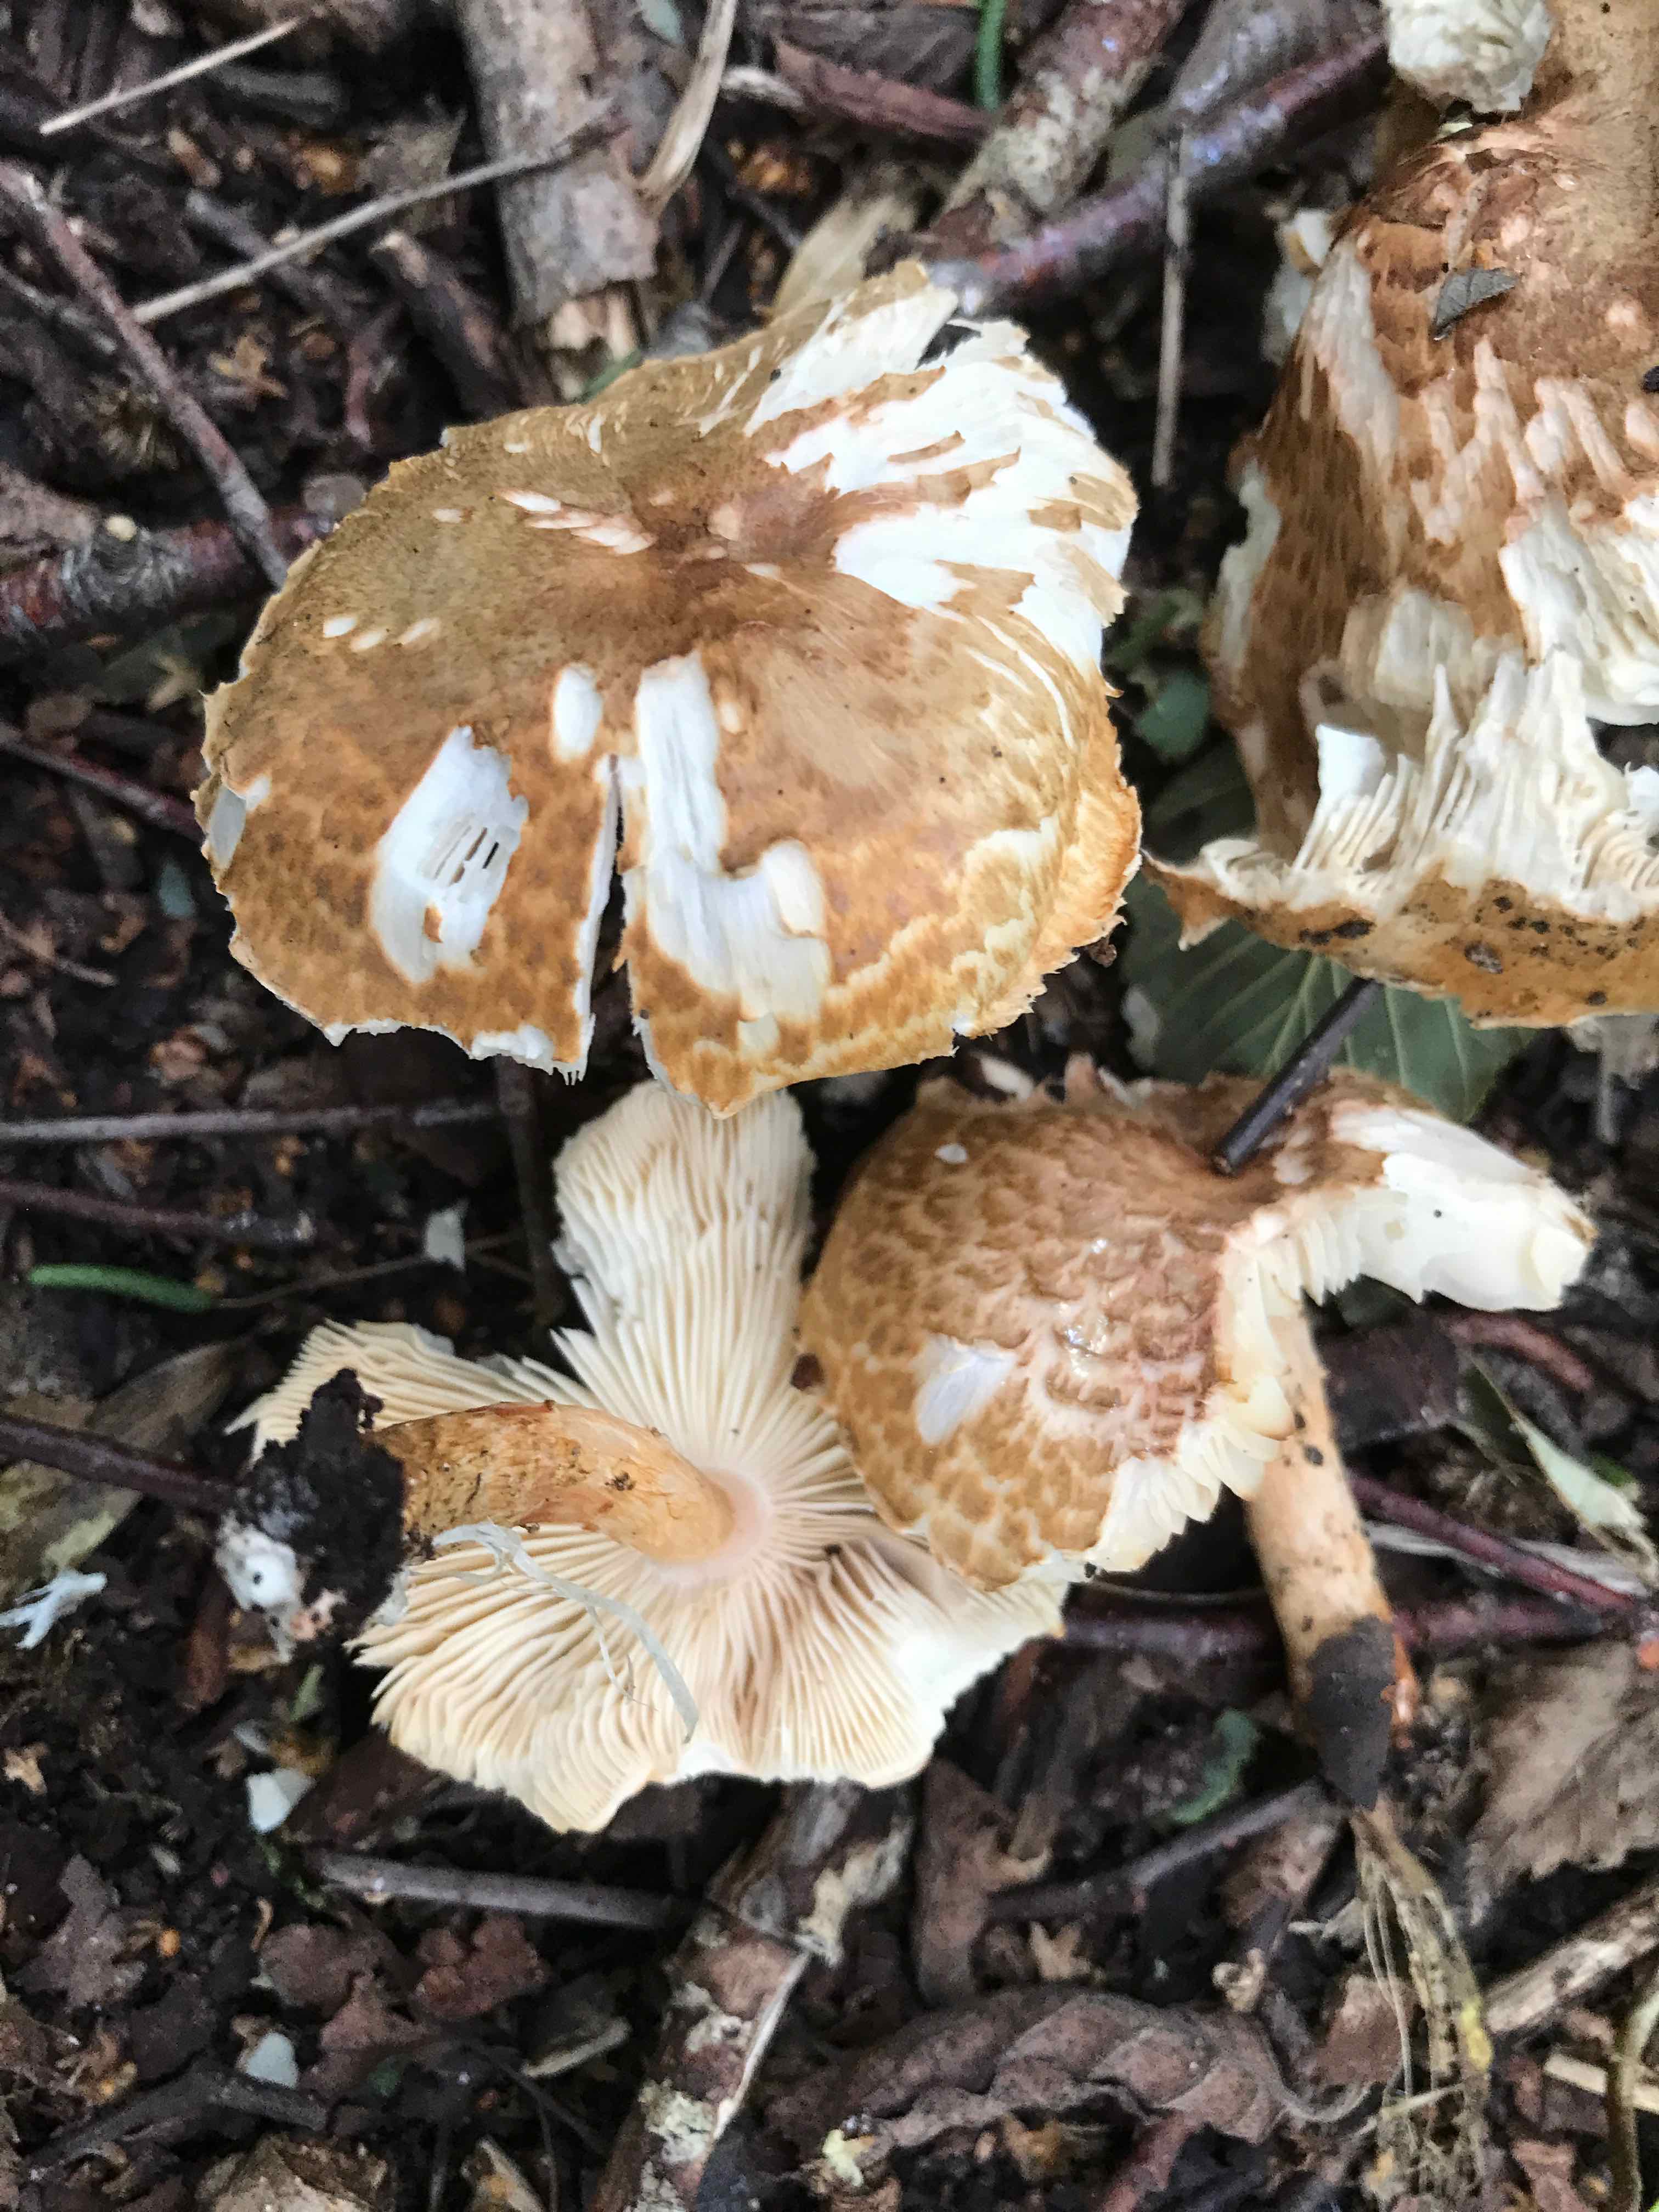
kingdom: Fungi
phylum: Basidiomycota
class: Agaricomycetes
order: Agaricales
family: Agaricaceae
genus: Leucocoprinus
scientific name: Leucocoprinus straminellus
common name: rustbrun parasolhat
